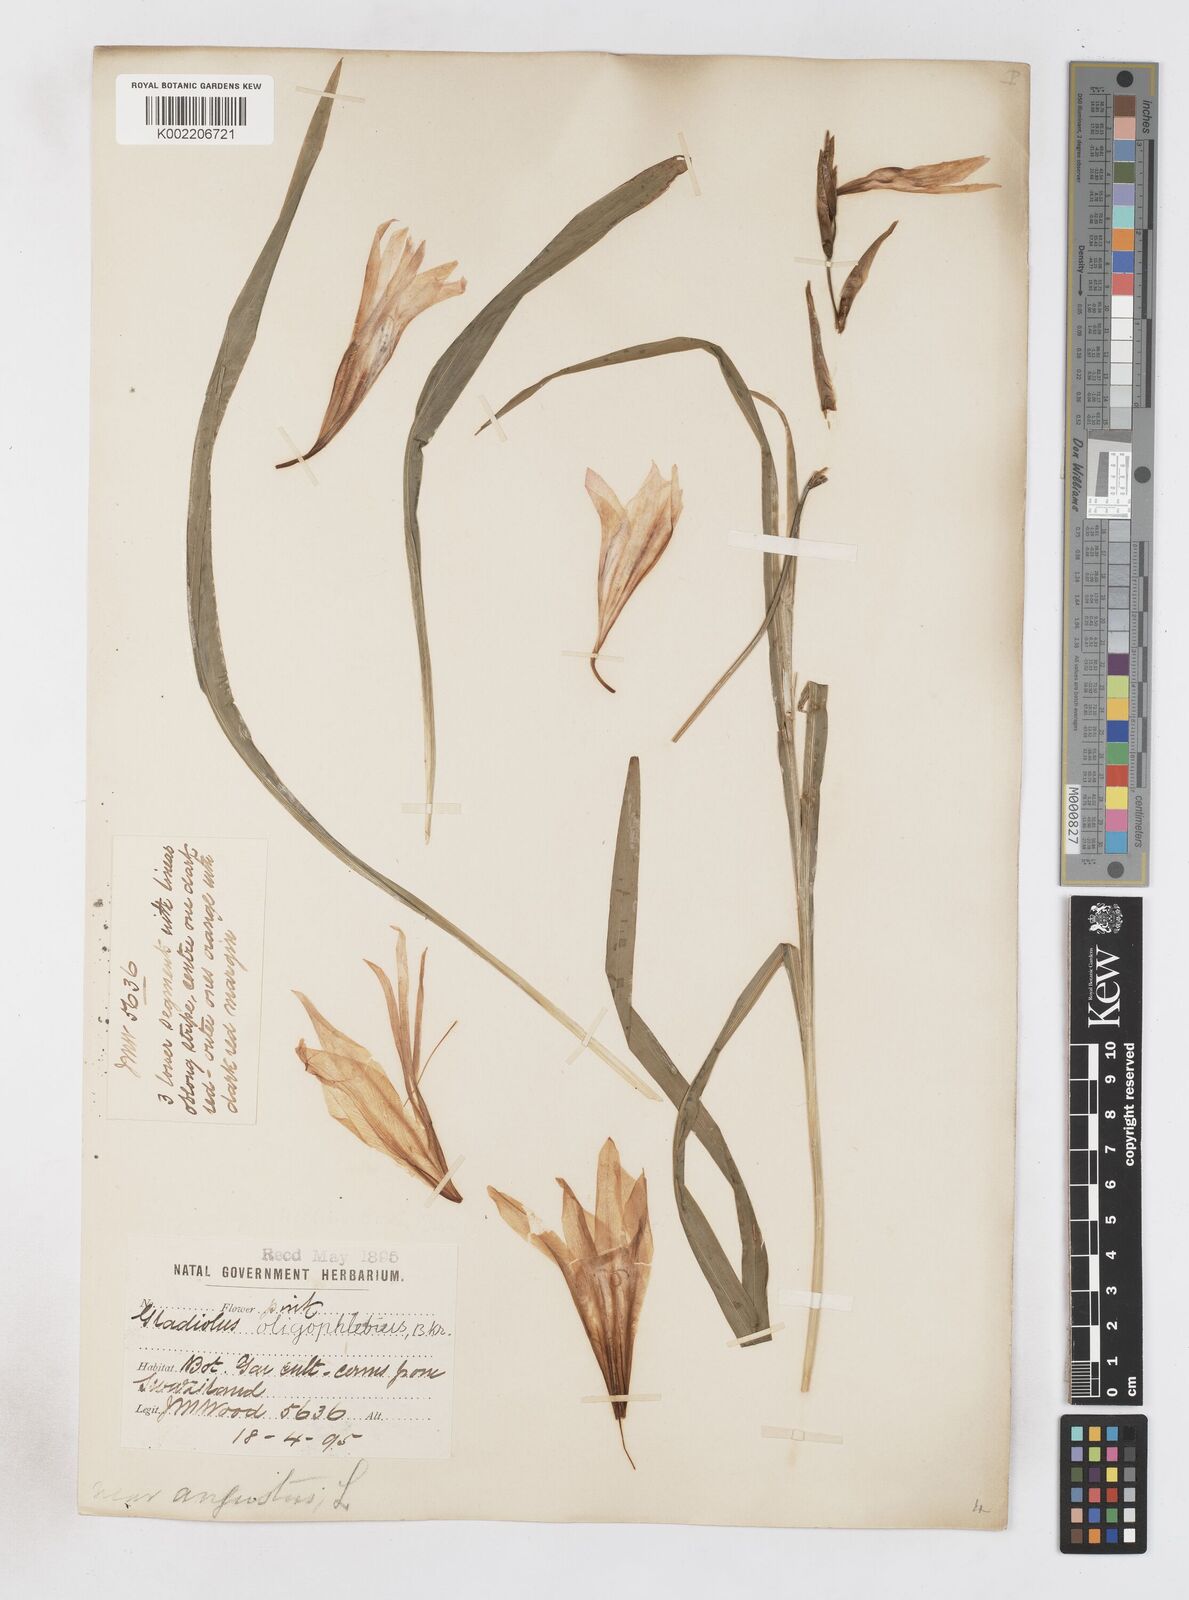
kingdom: Plantae
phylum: Tracheophyta
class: Liliopsida
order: Asparagales
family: Iridaceae
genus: Gladiolus
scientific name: Gladiolus oligophlebius
